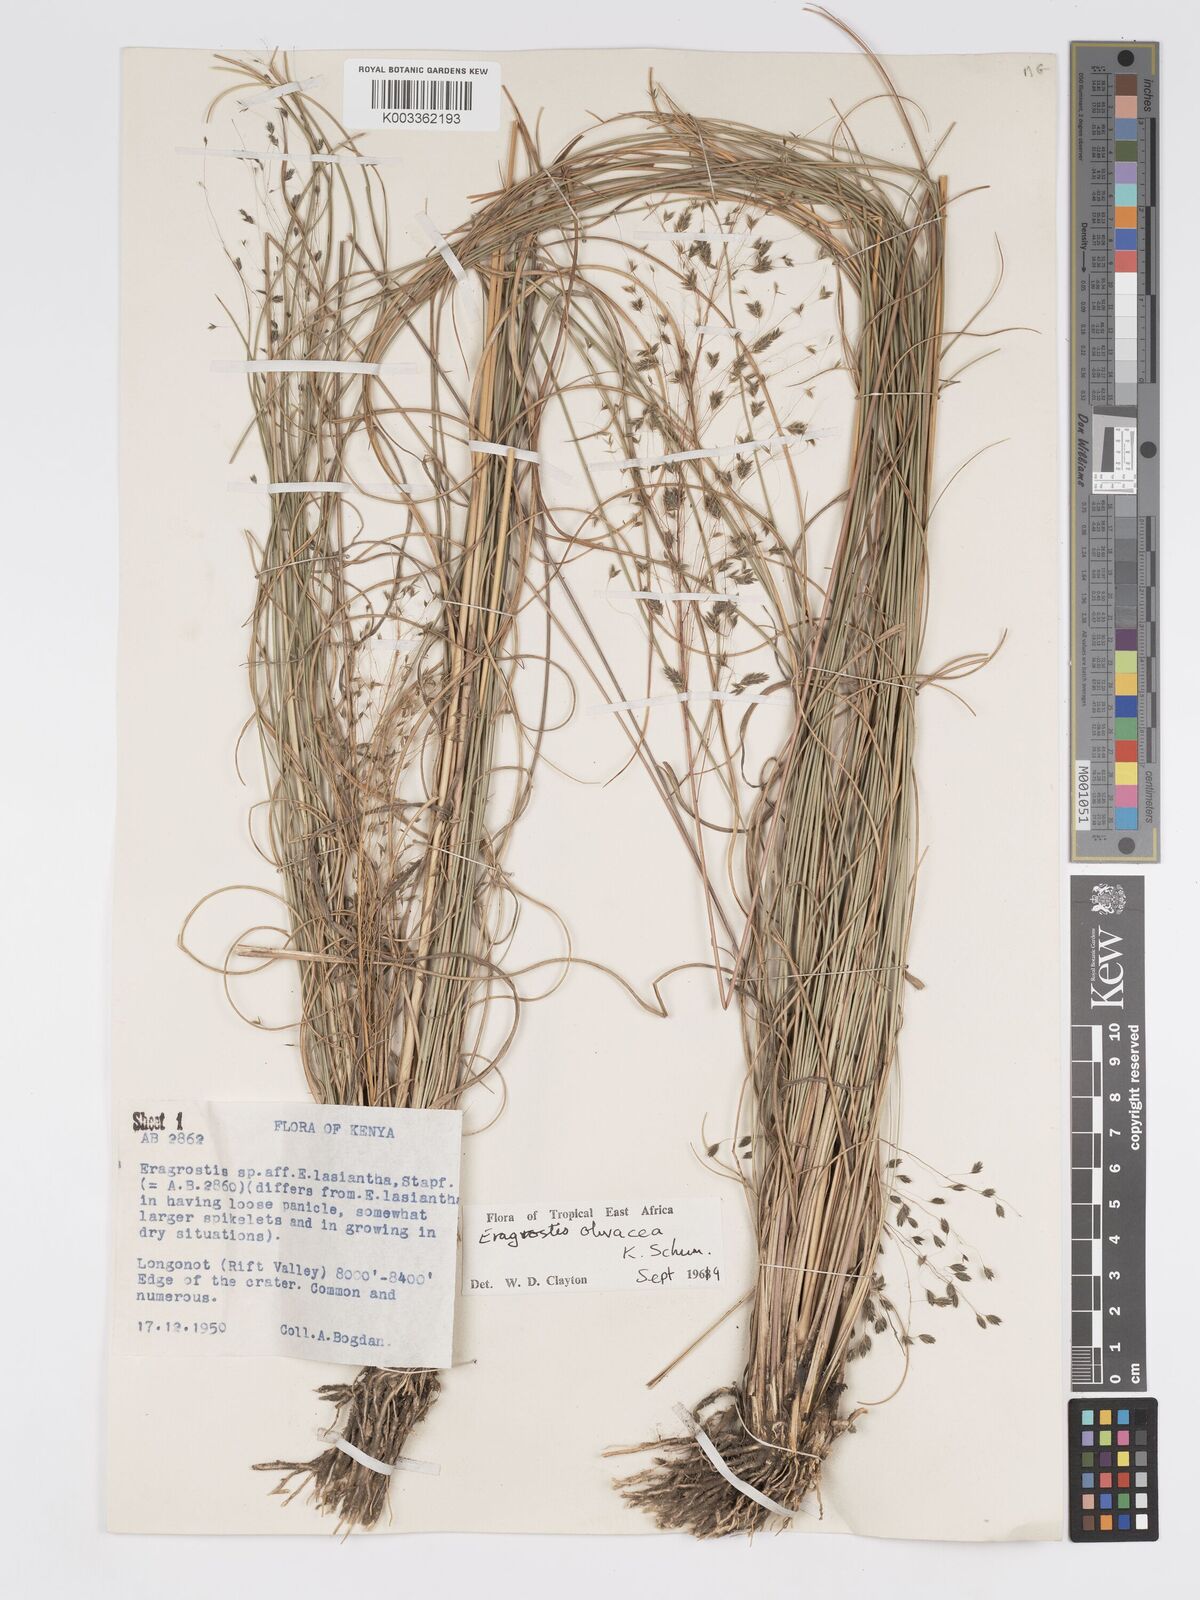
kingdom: Plantae
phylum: Tracheophyta
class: Liliopsida
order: Poales
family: Poaceae
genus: Eragrostis
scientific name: Eragrostis olivacea
